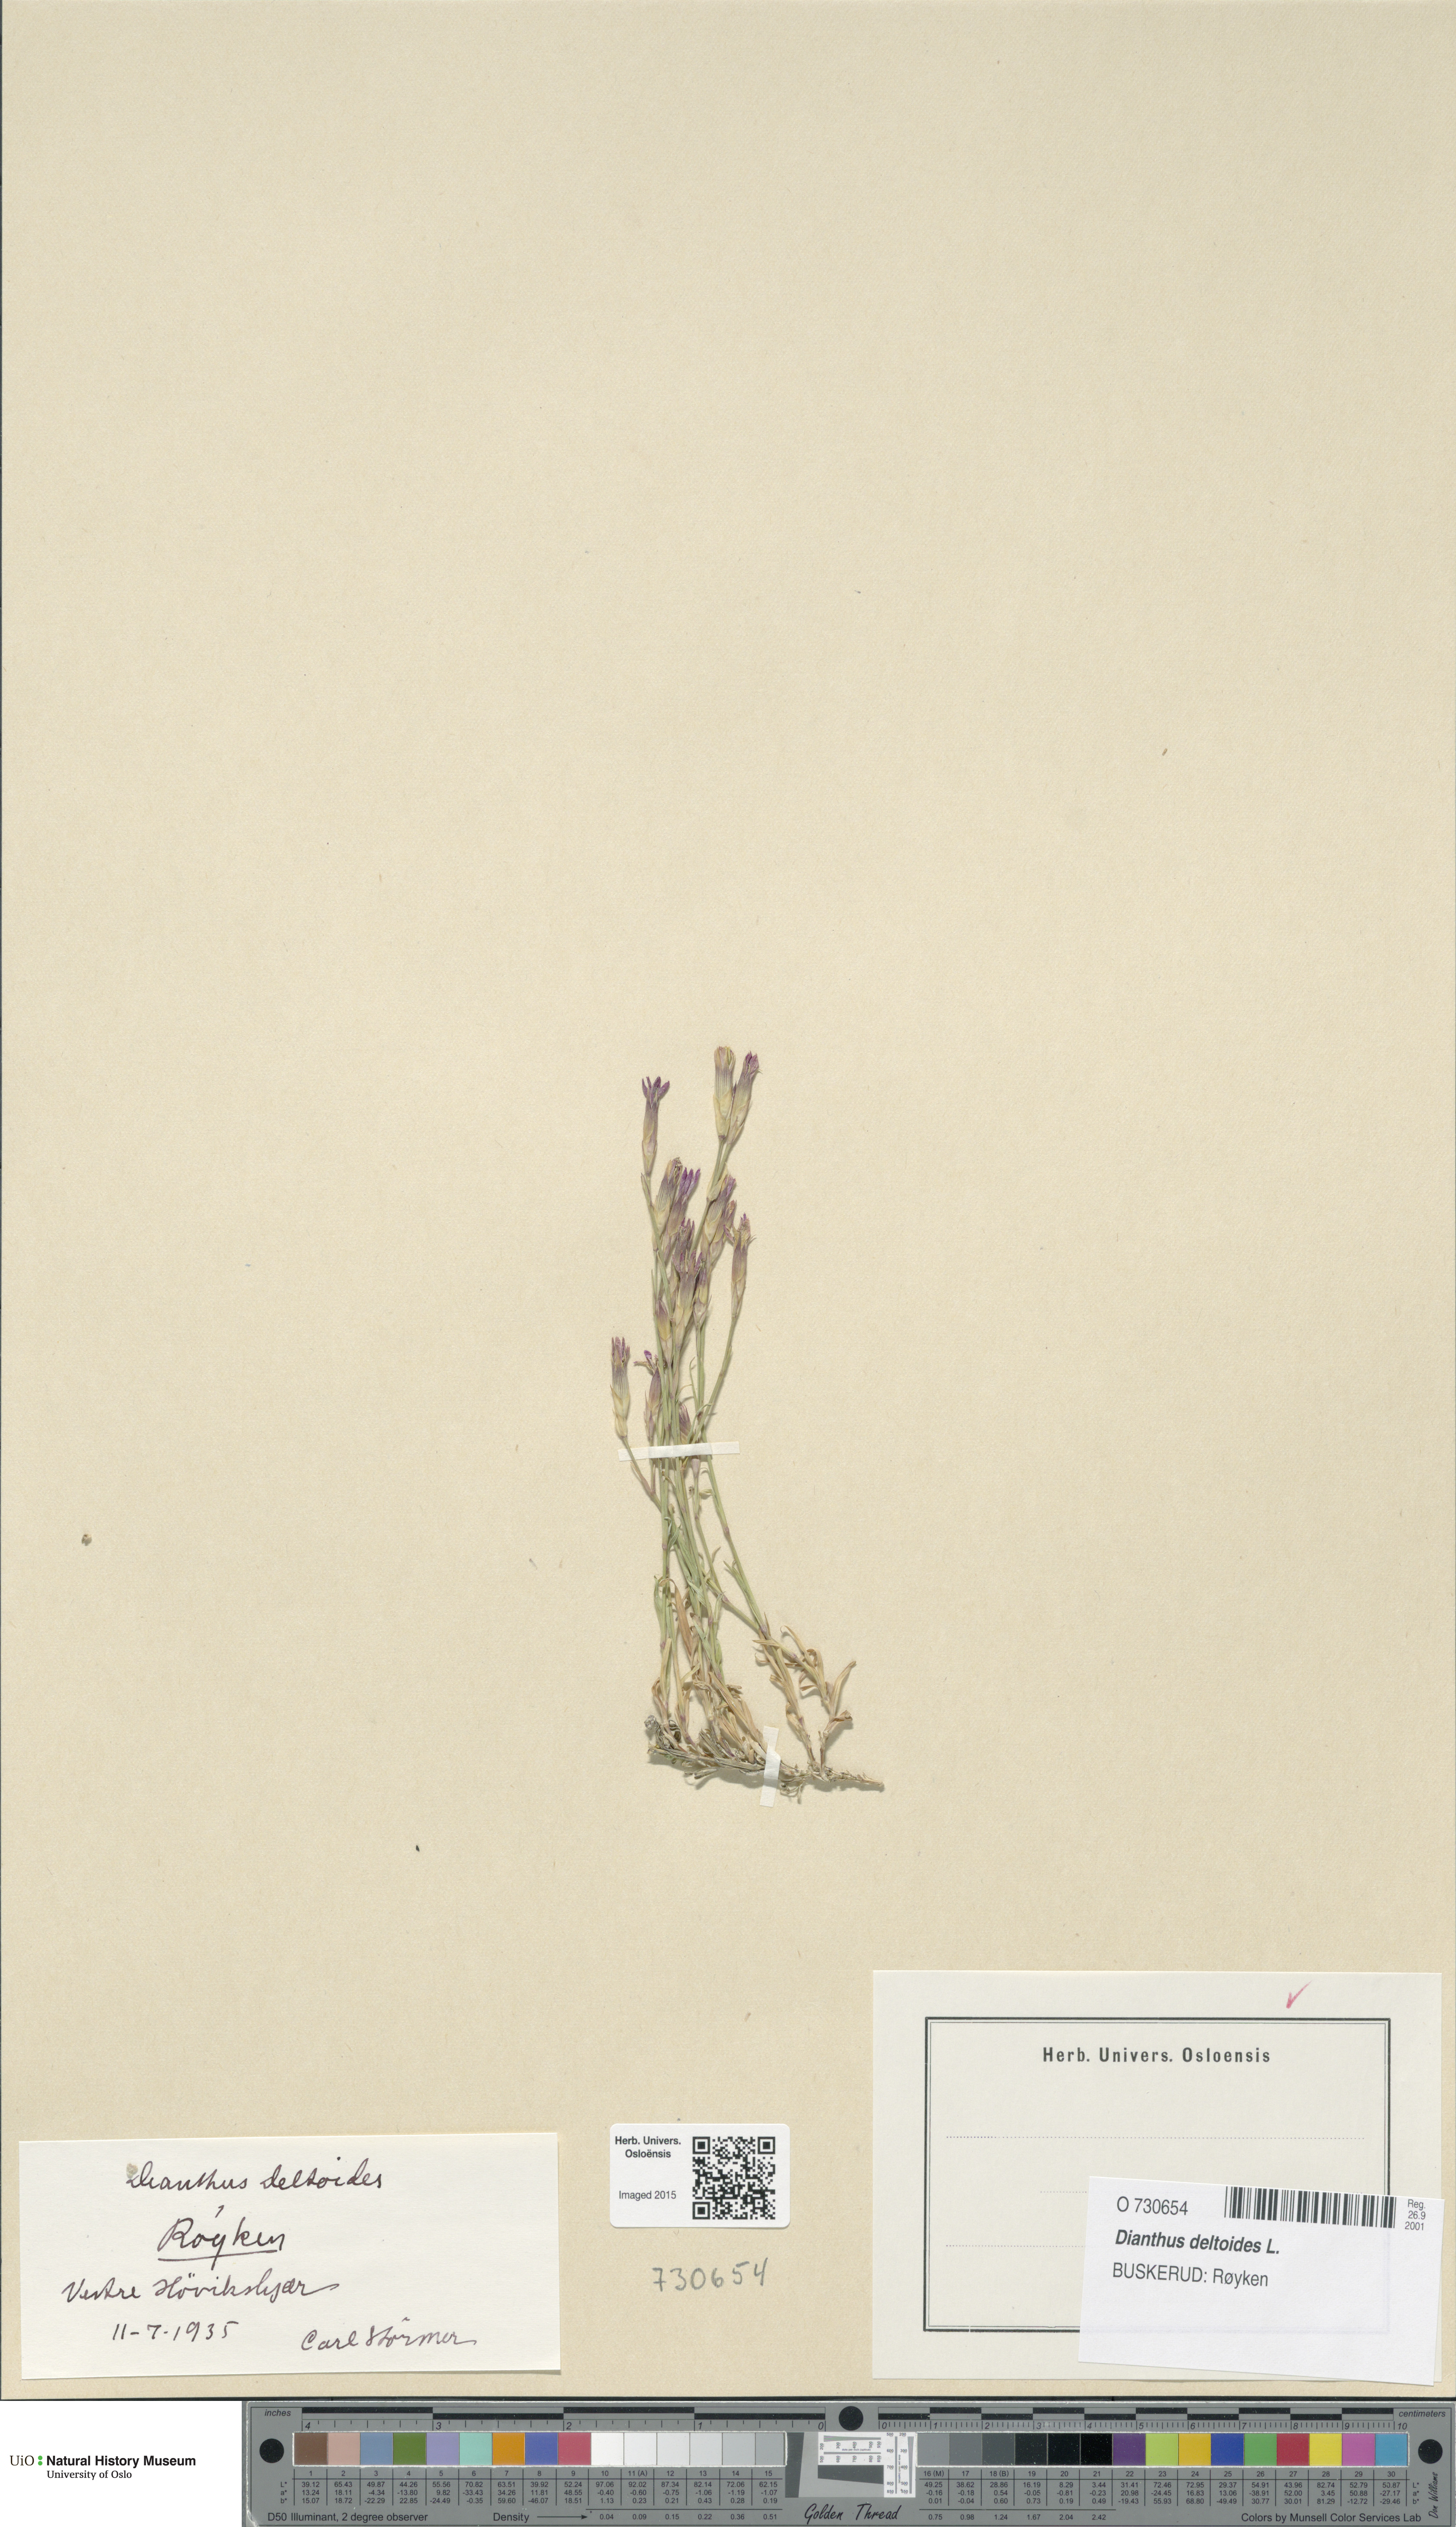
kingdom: Plantae
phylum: Tracheophyta
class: Magnoliopsida
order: Caryophyllales
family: Caryophyllaceae
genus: Dianthus
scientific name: Dianthus deltoides
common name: Maiden pink
